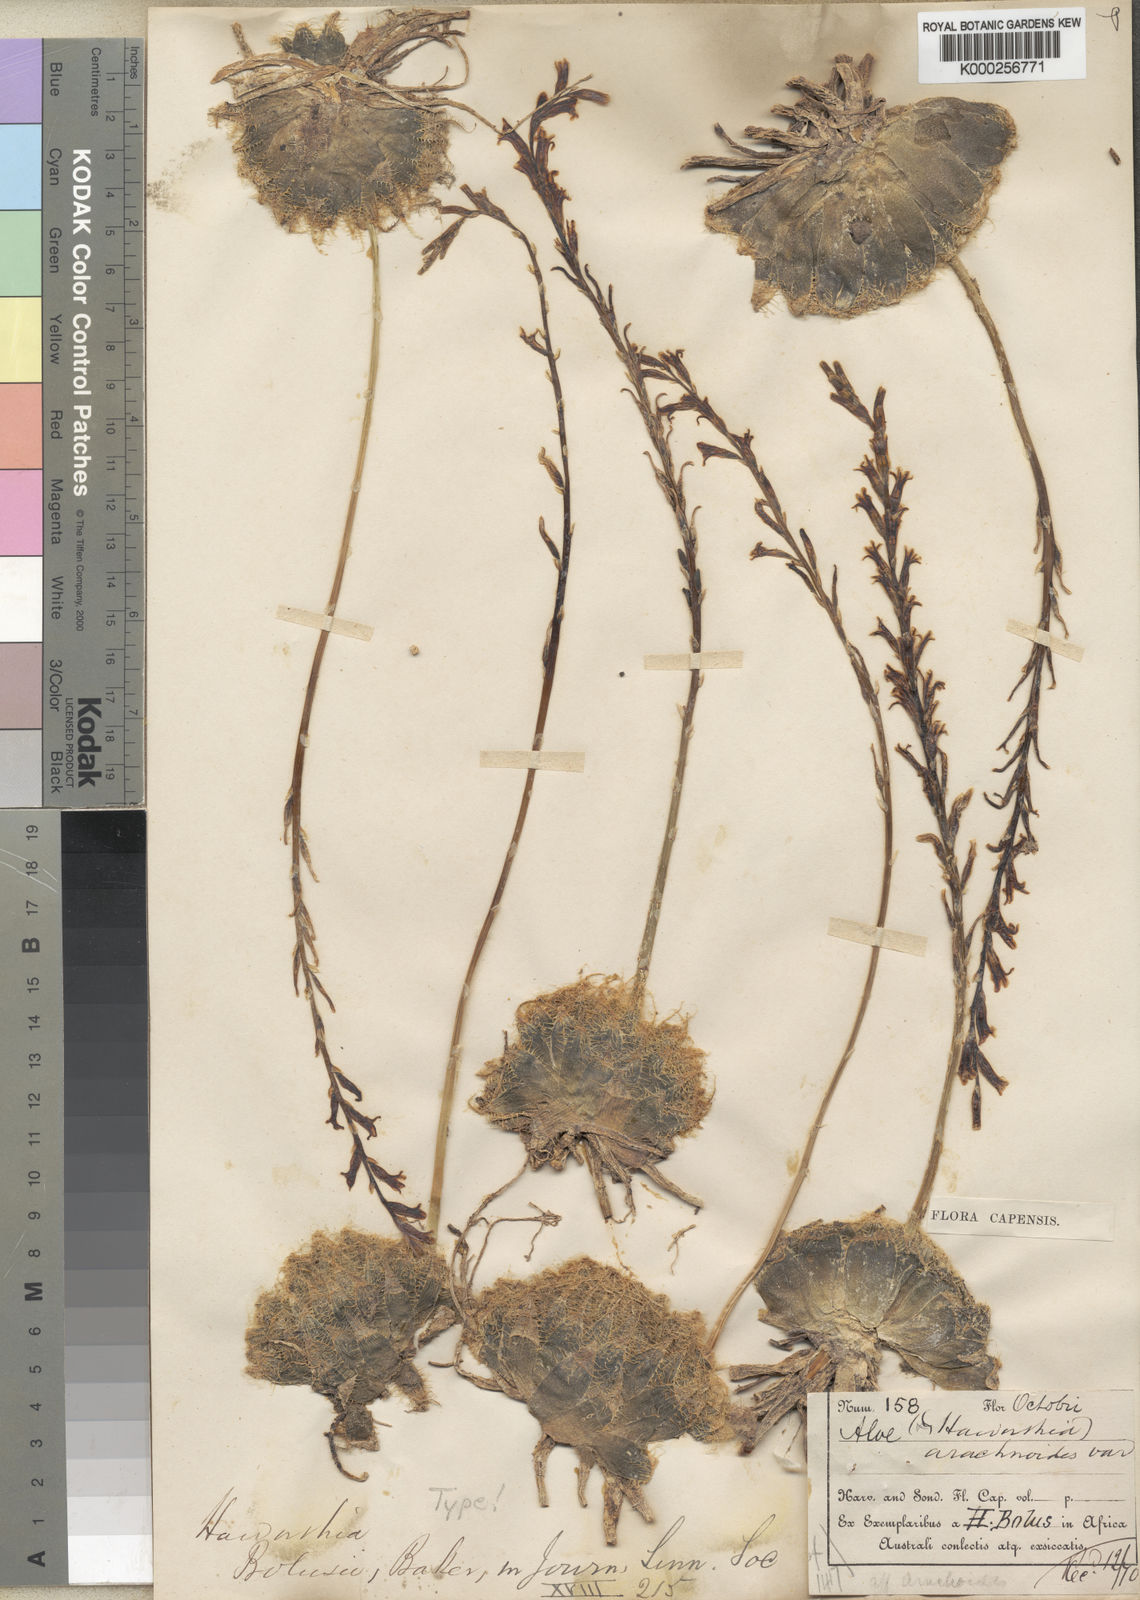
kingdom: Plantae
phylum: Tracheophyta
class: Liliopsida
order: Asparagales
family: Asphodelaceae
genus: Haworthia
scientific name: Haworthia bolusii
